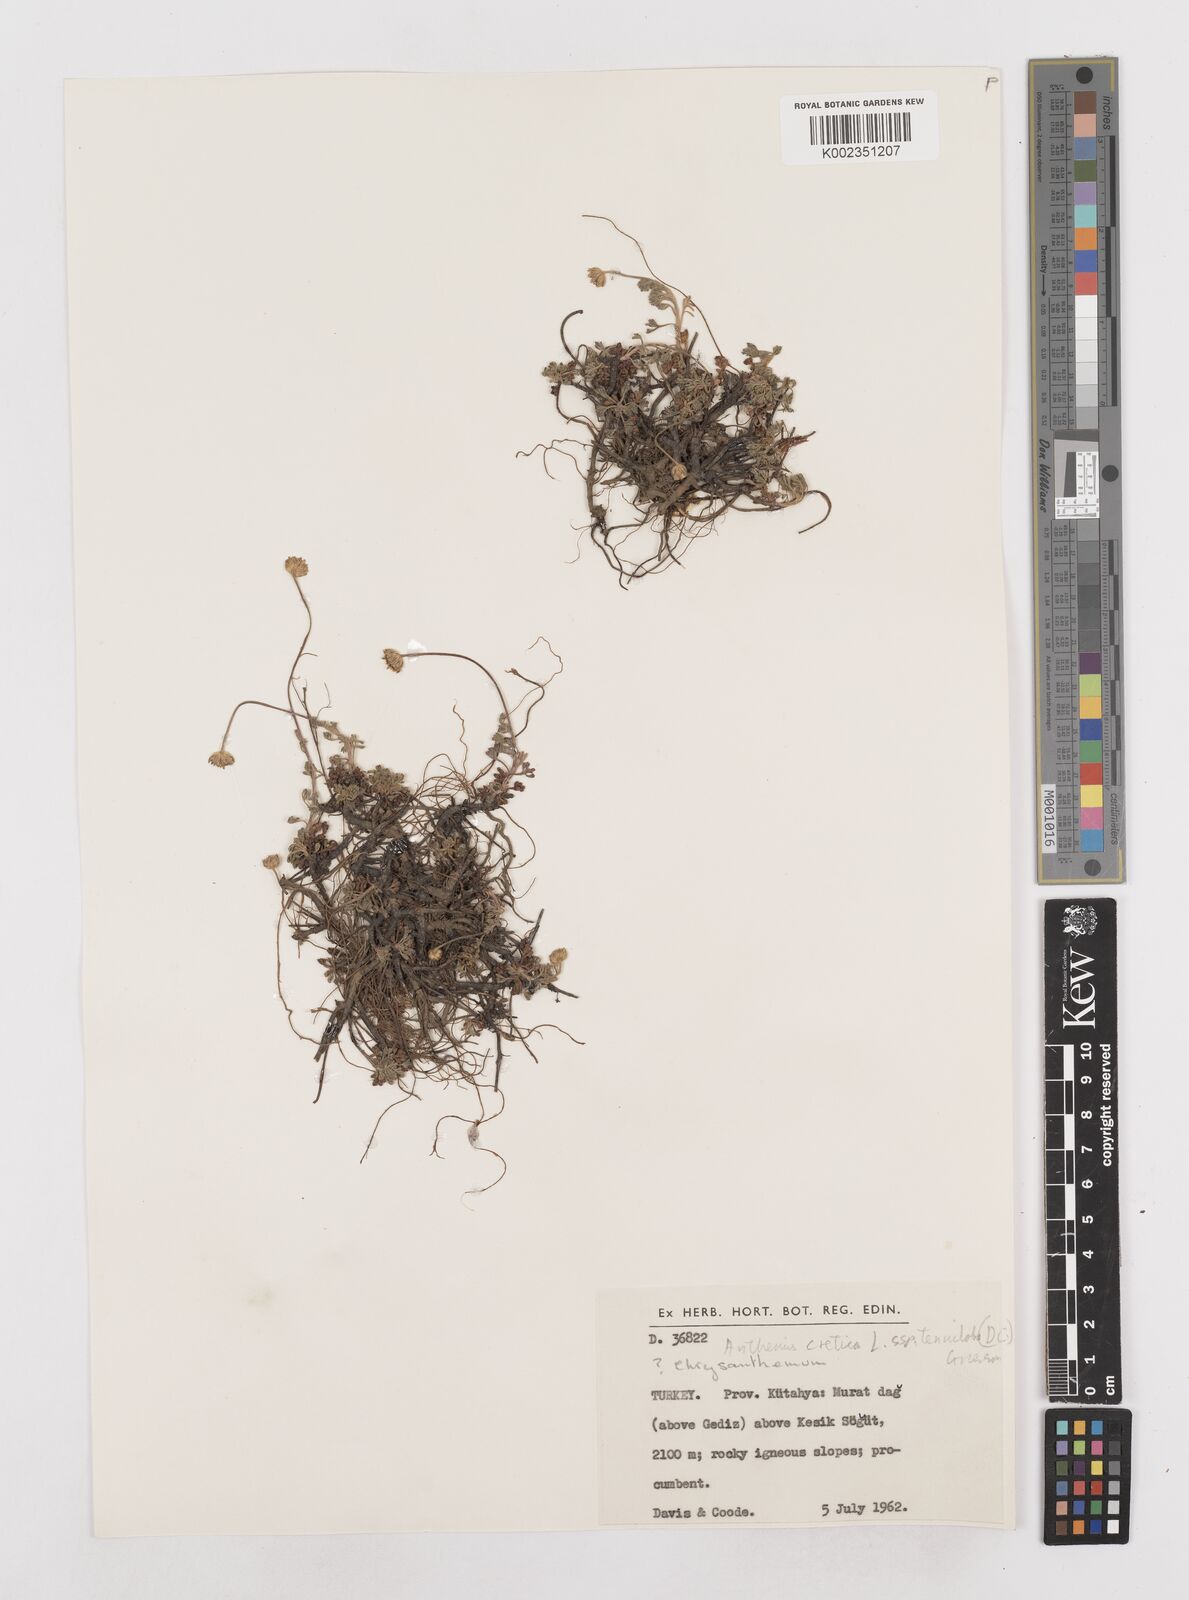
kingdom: Plantae
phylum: Tracheophyta
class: Magnoliopsida
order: Asterales
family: Asteraceae
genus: Anthemis
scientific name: Anthemis cretica
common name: Mountain dog-daisy
